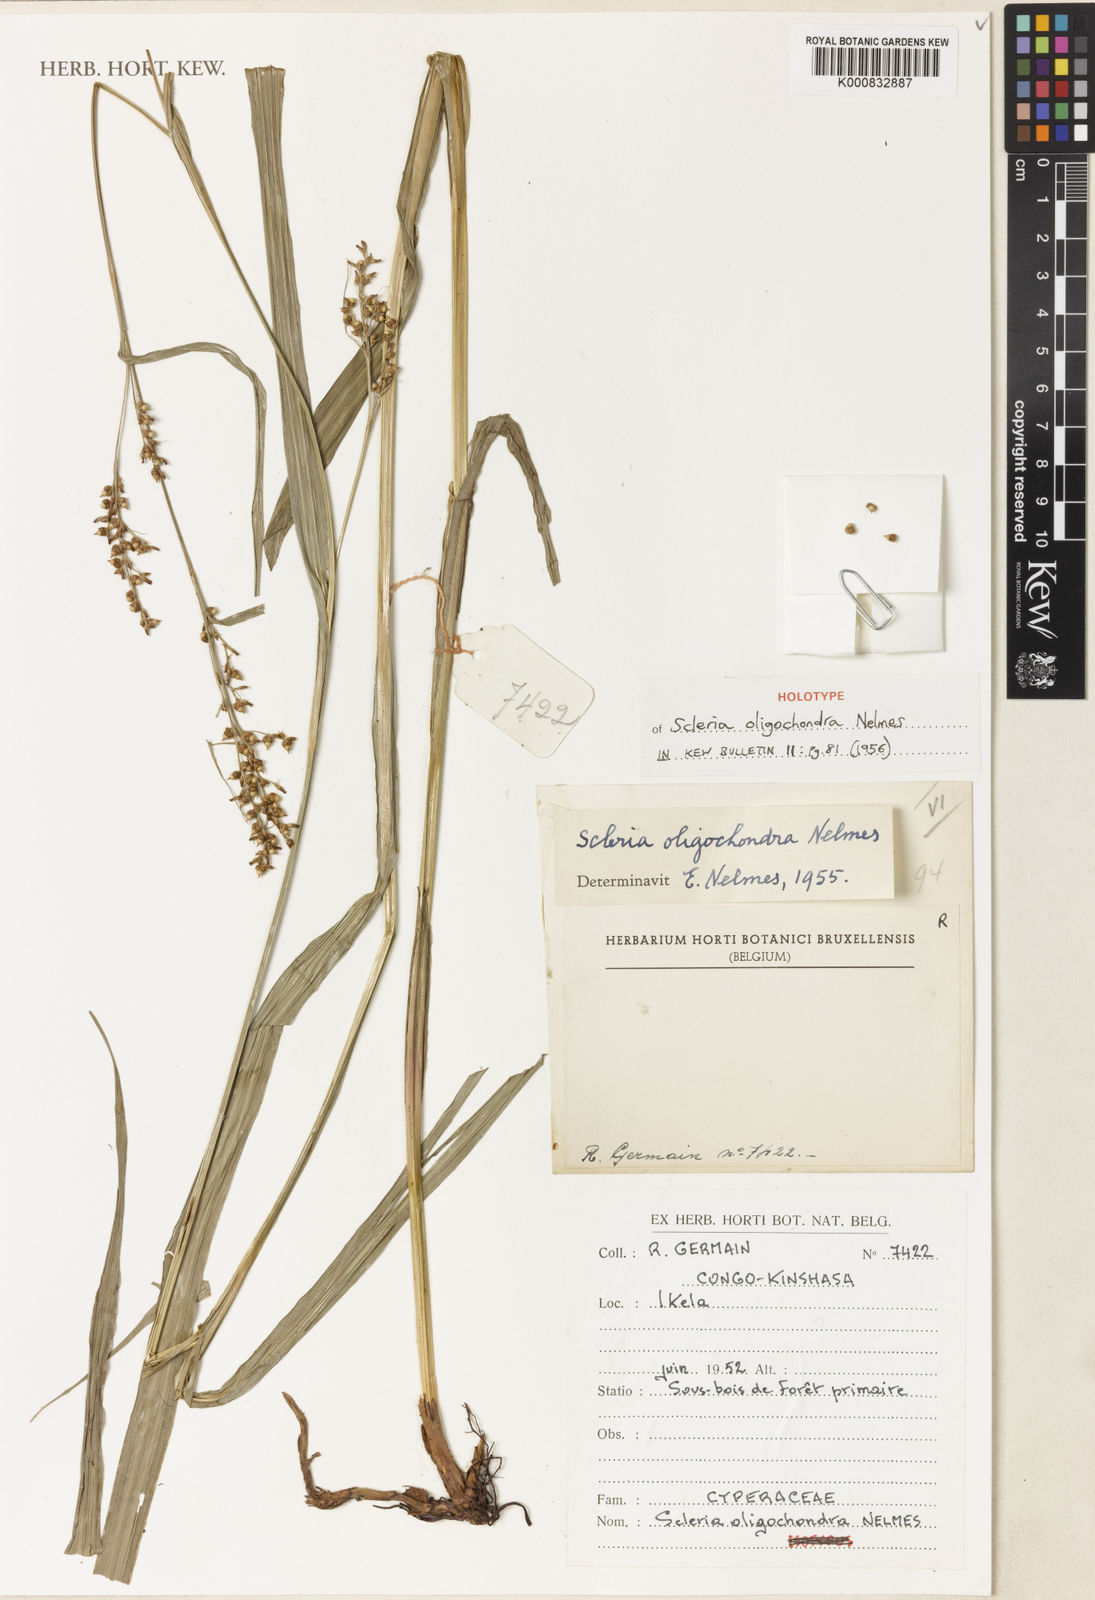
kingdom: Plantae
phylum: Tracheophyta
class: Liliopsida
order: Poales
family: Cyperaceae
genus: Scleria
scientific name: Scleria oligochondra
